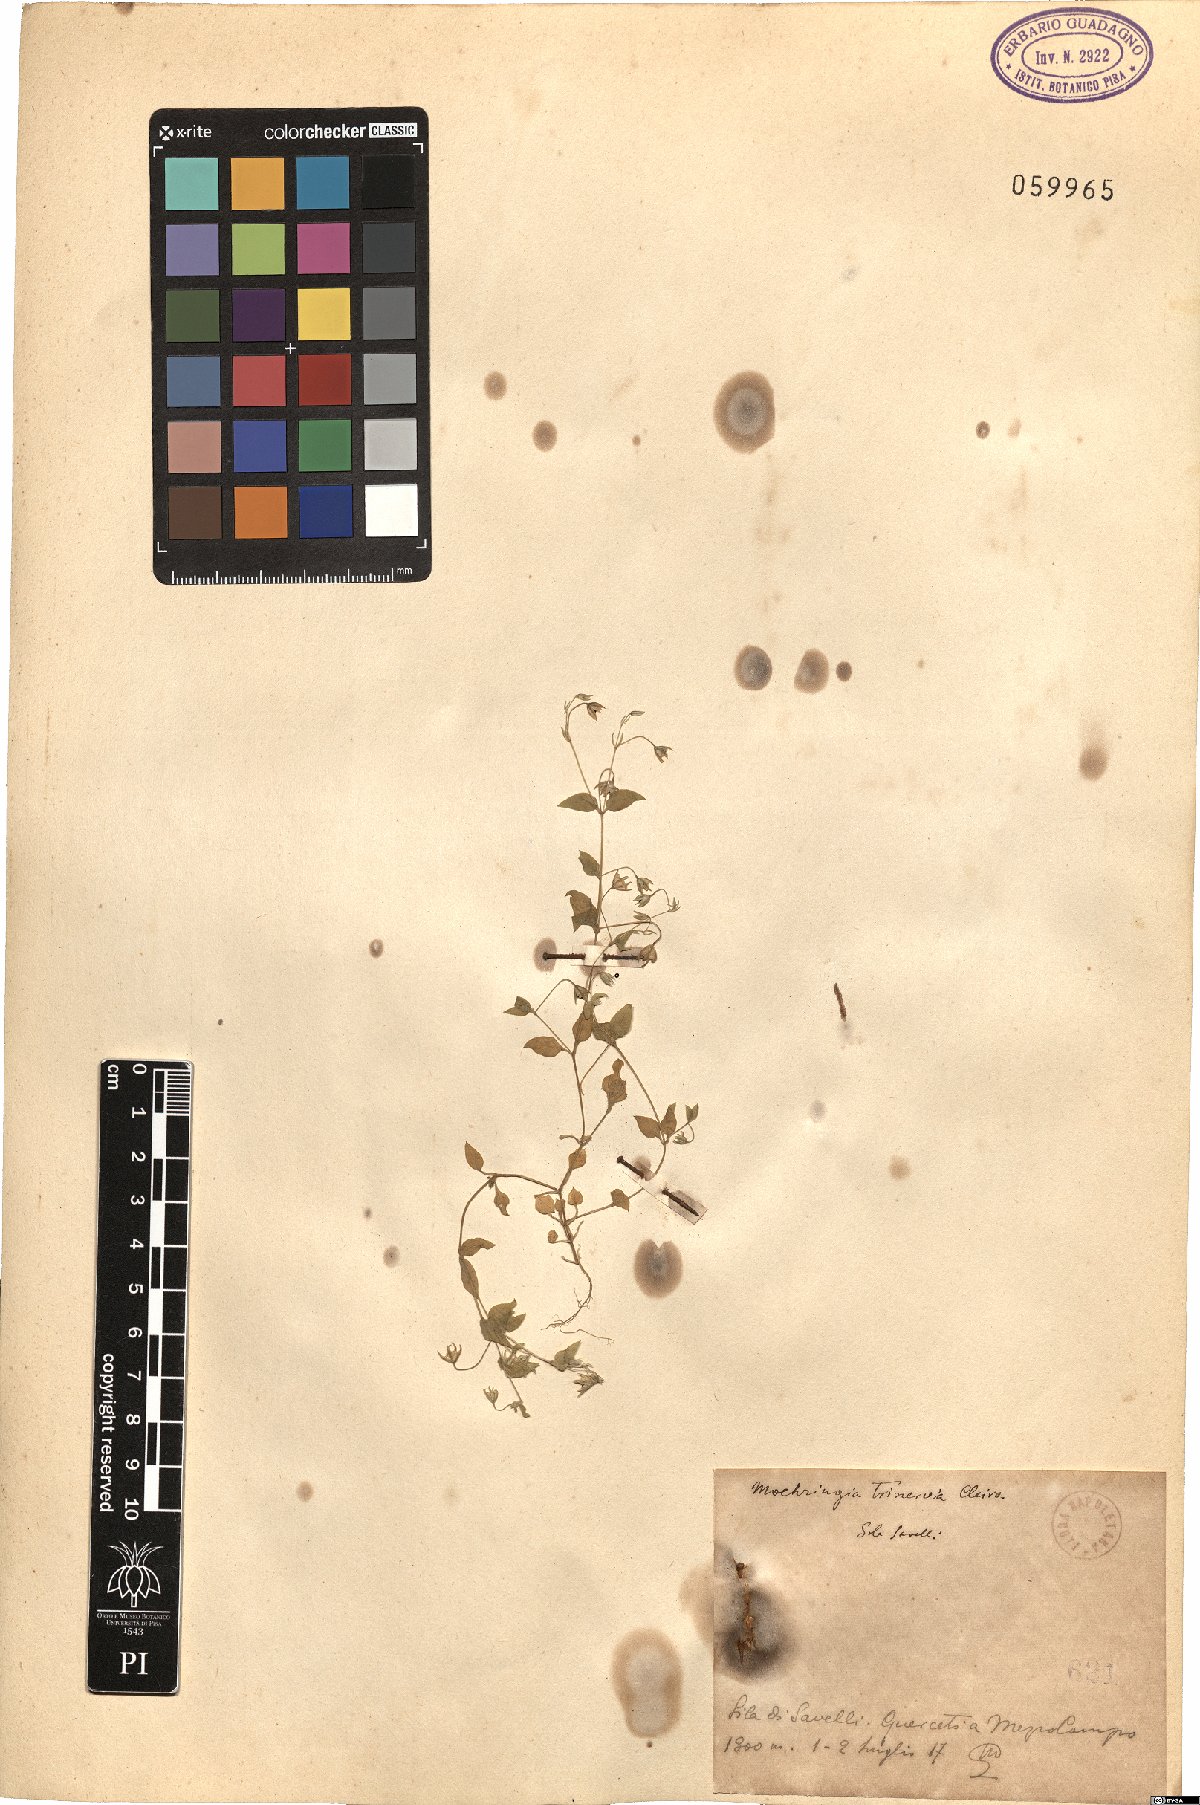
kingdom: Plantae
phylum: Tracheophyta
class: Magnoliopsida
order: Caryophyllales
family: Caryophyllaceae
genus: Moehringia
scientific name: Moehringia trinervia
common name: Three-nerved sandwort
